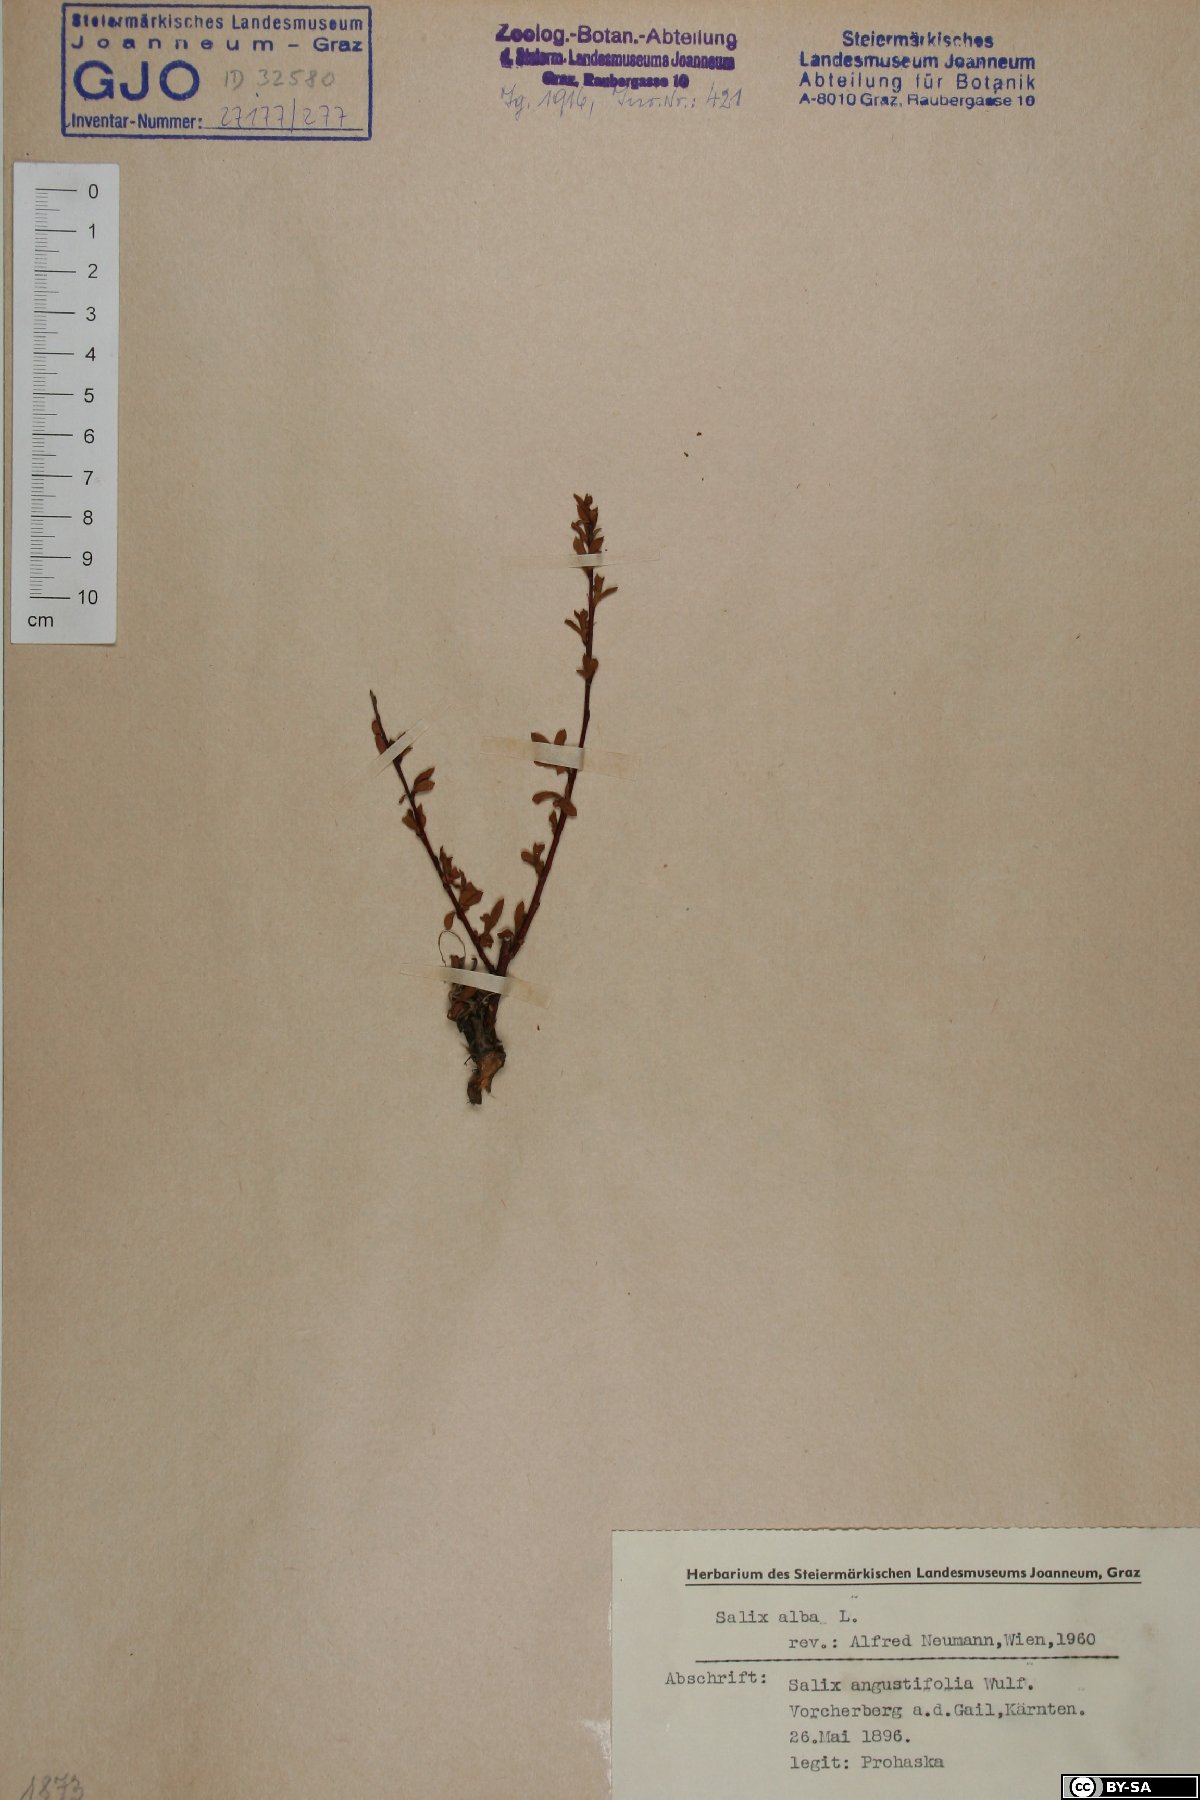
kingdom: Plantae
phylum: Tracheophyta
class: Magnoliopsida
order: Malpighiales
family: Salicaceae
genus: Salix
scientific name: Salix alba
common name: White willow
